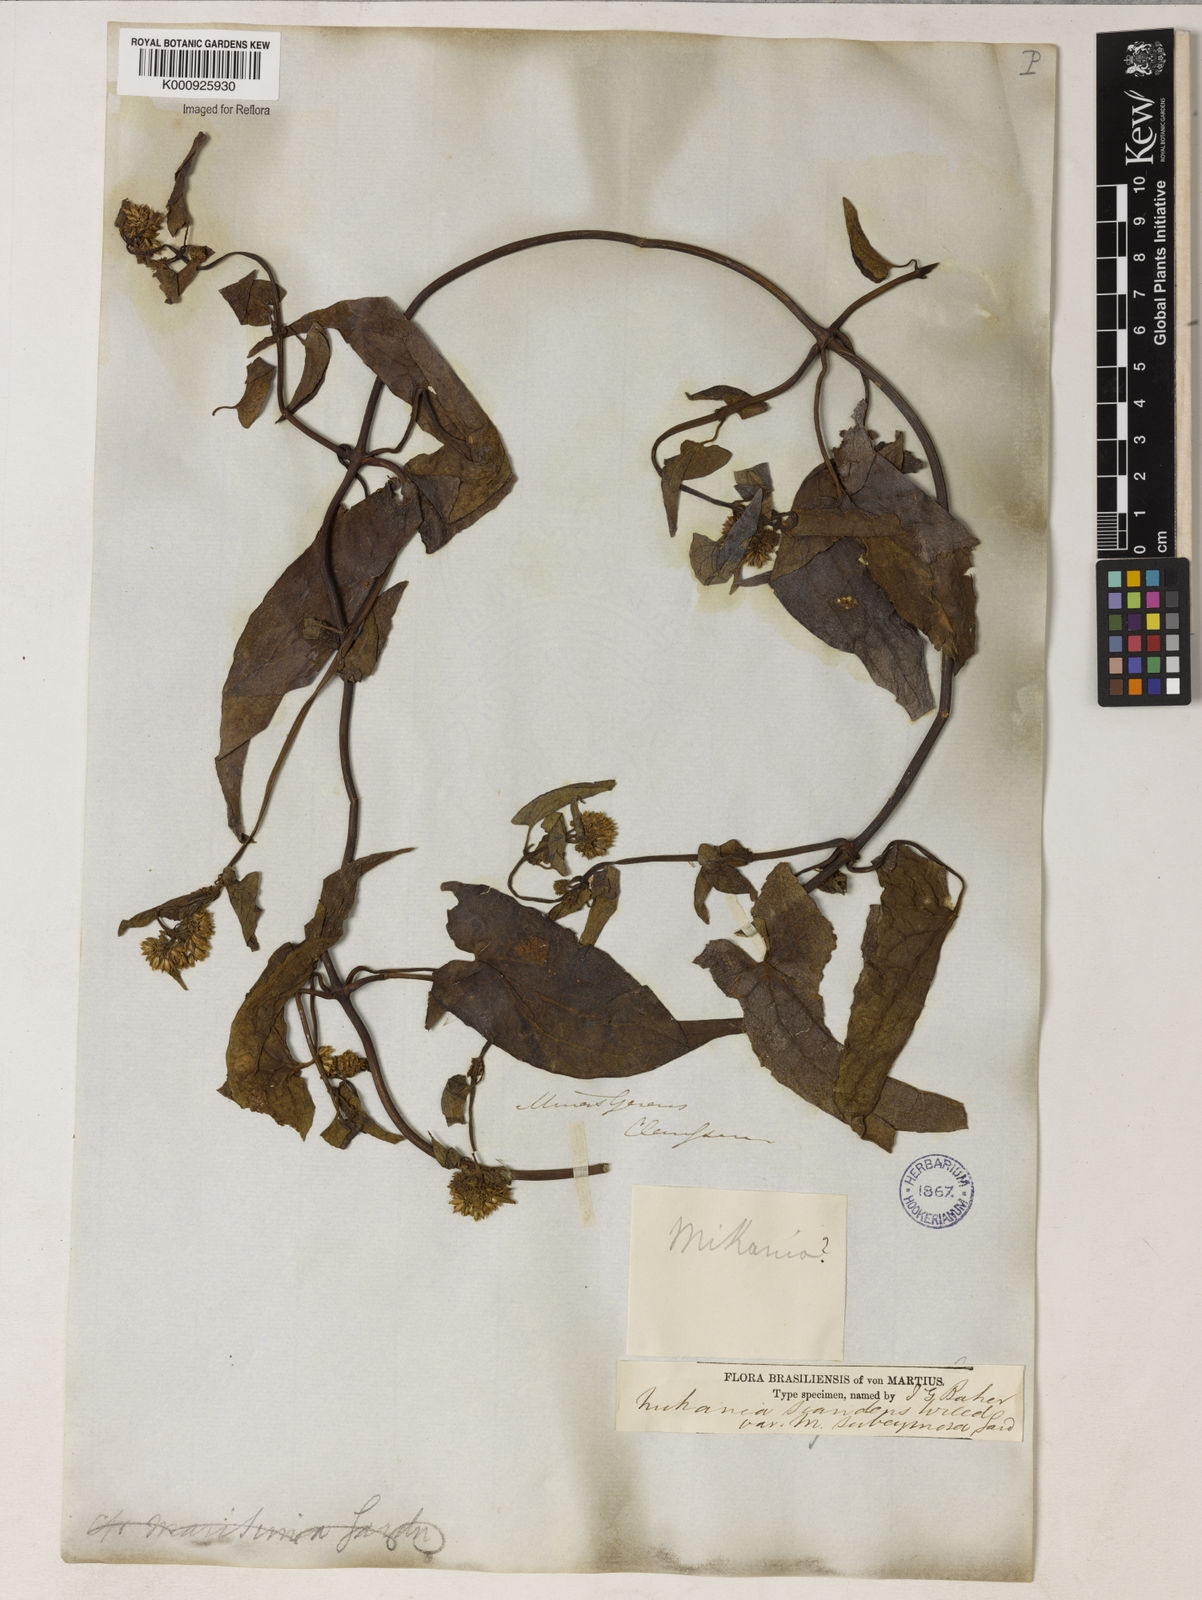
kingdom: Plantae
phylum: Tracheophyta
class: Magnoliopsida
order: Asterales
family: Asteraceae
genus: Mikania
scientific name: Mikania micrantha
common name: Mile-a-minute
